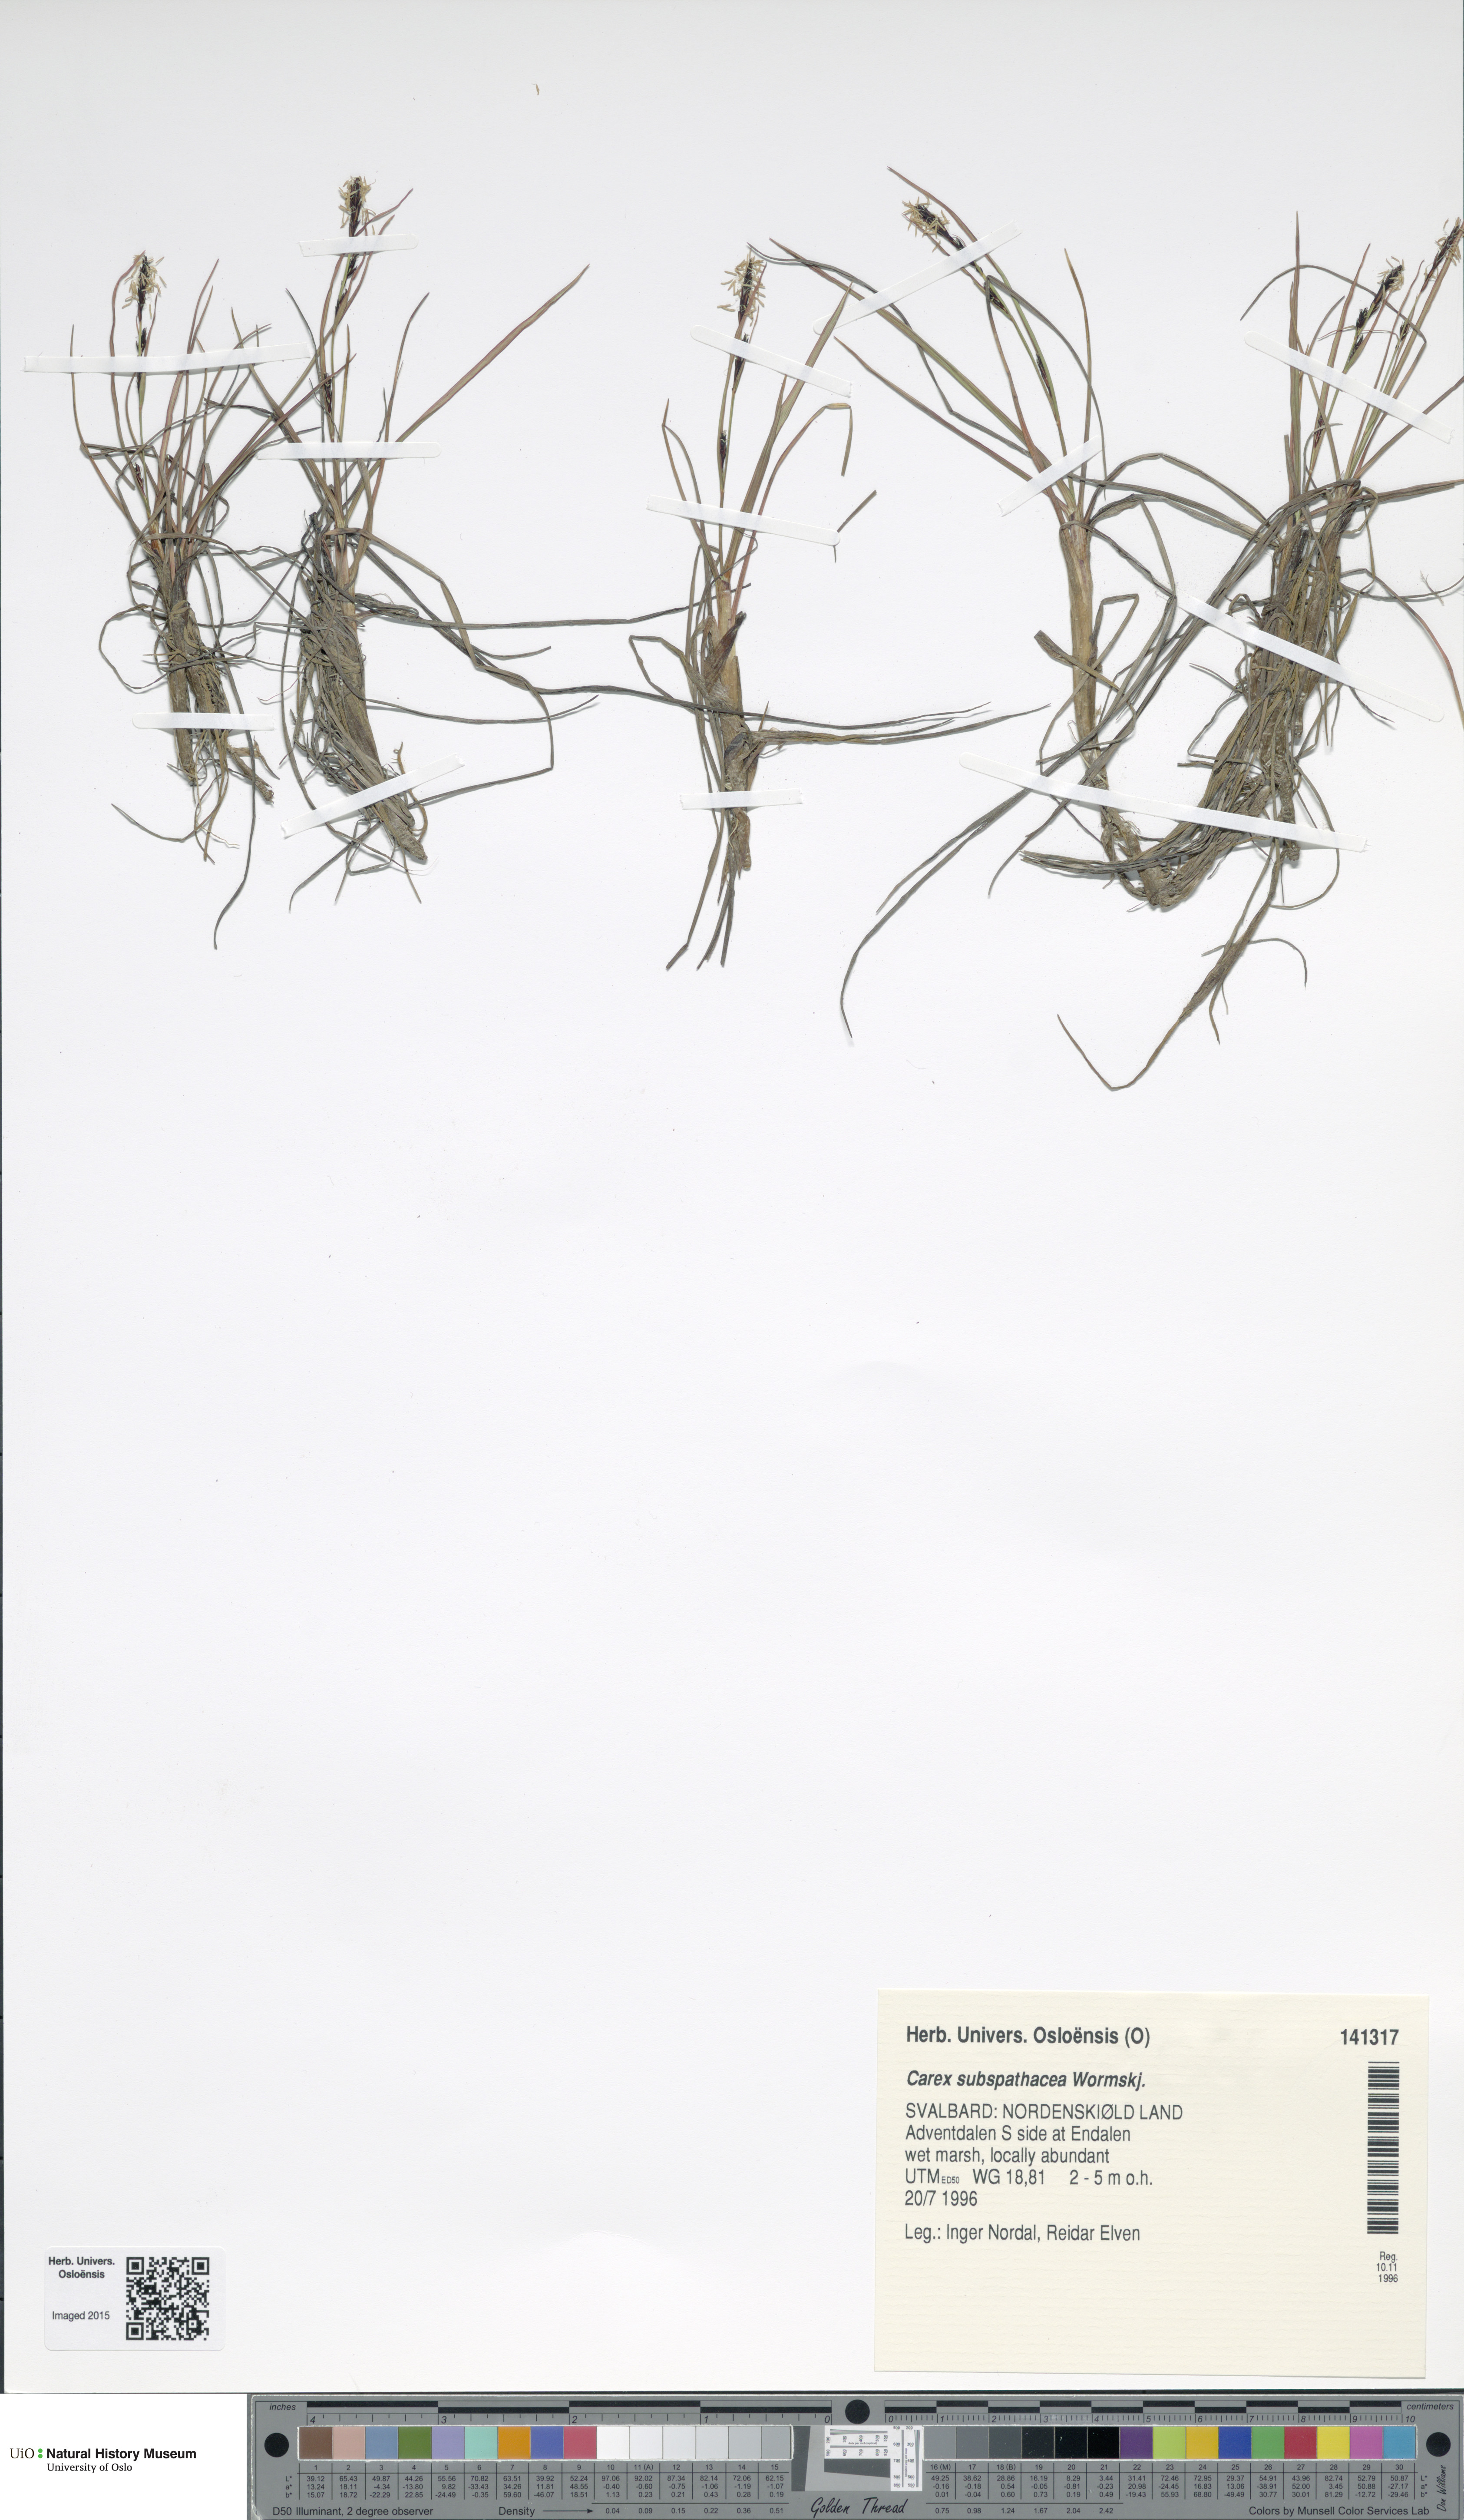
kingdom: Plantae
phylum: Tracheophyta
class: Liliopsida
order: Poales
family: Cyperaceae
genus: Carex
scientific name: Carex subspathacea
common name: Hoppner's sedge
